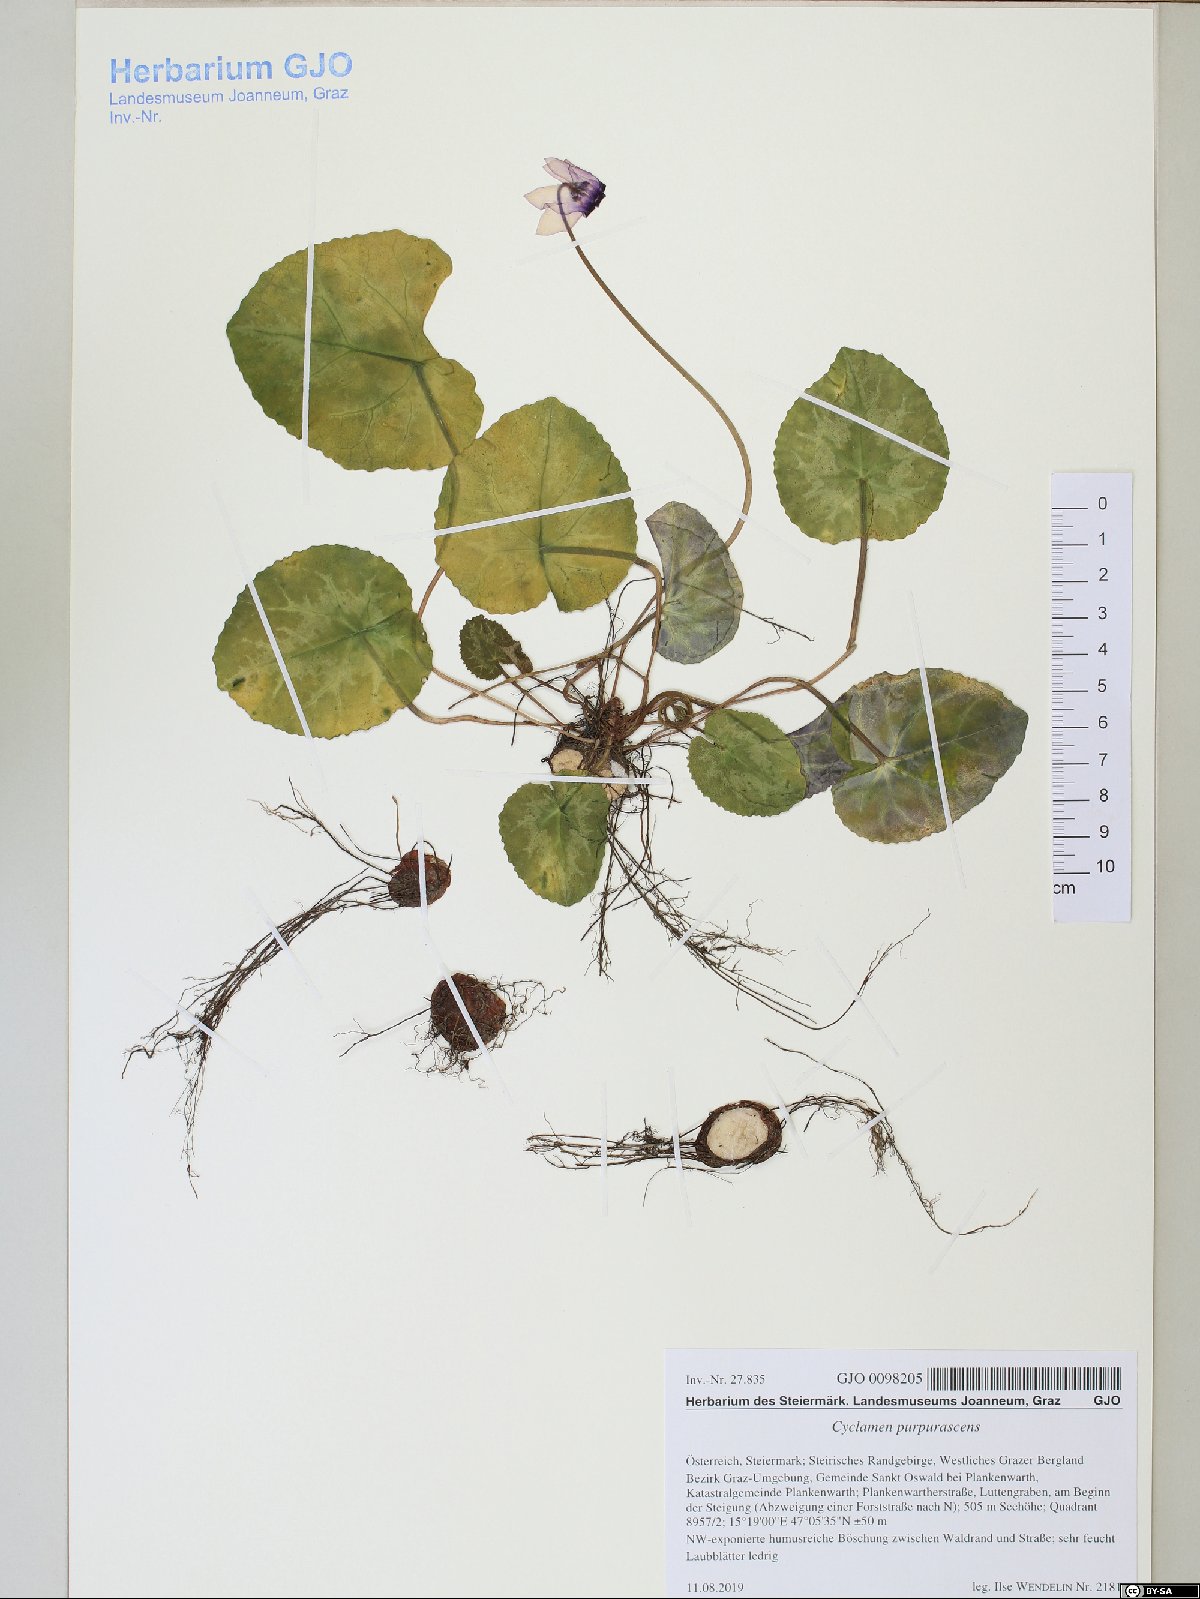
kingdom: Plantae
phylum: Tracheophyta
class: Magnoliopsida
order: Ericales
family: Primulaceae
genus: Cyclamen
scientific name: Cyclamen purpurascens
